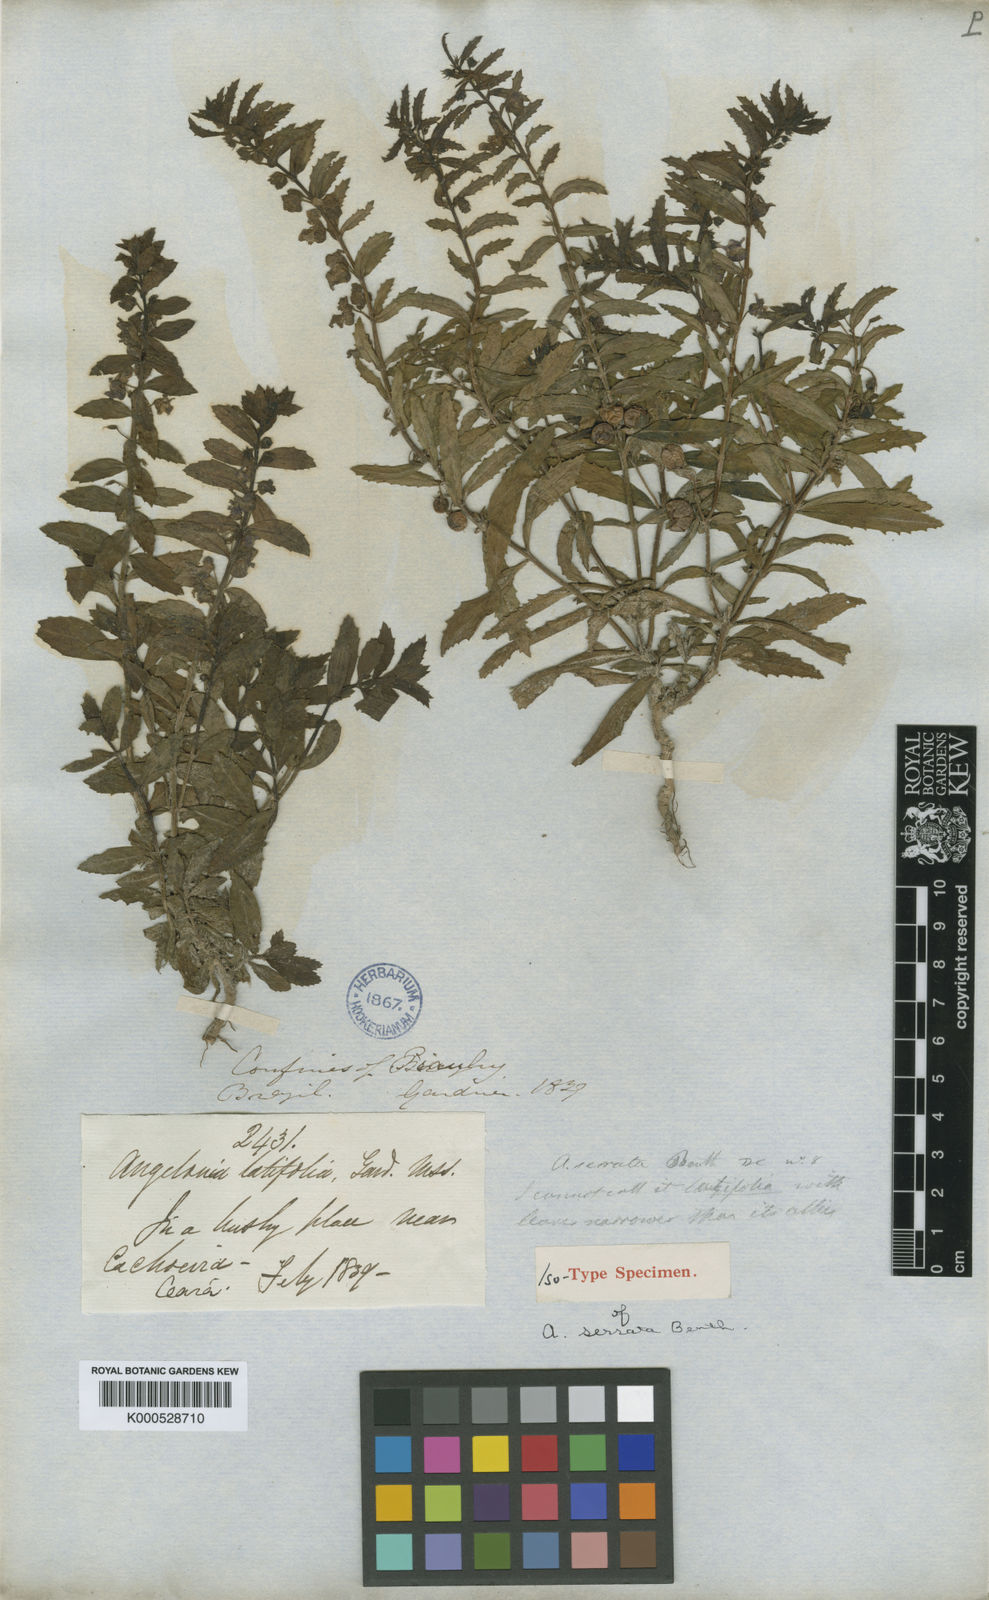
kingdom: Plantae
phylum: Tracheophyta
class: Magnoliopsida
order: Lamiales
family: Plantaginaceae
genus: Angelonia
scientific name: Angelonia arguta
